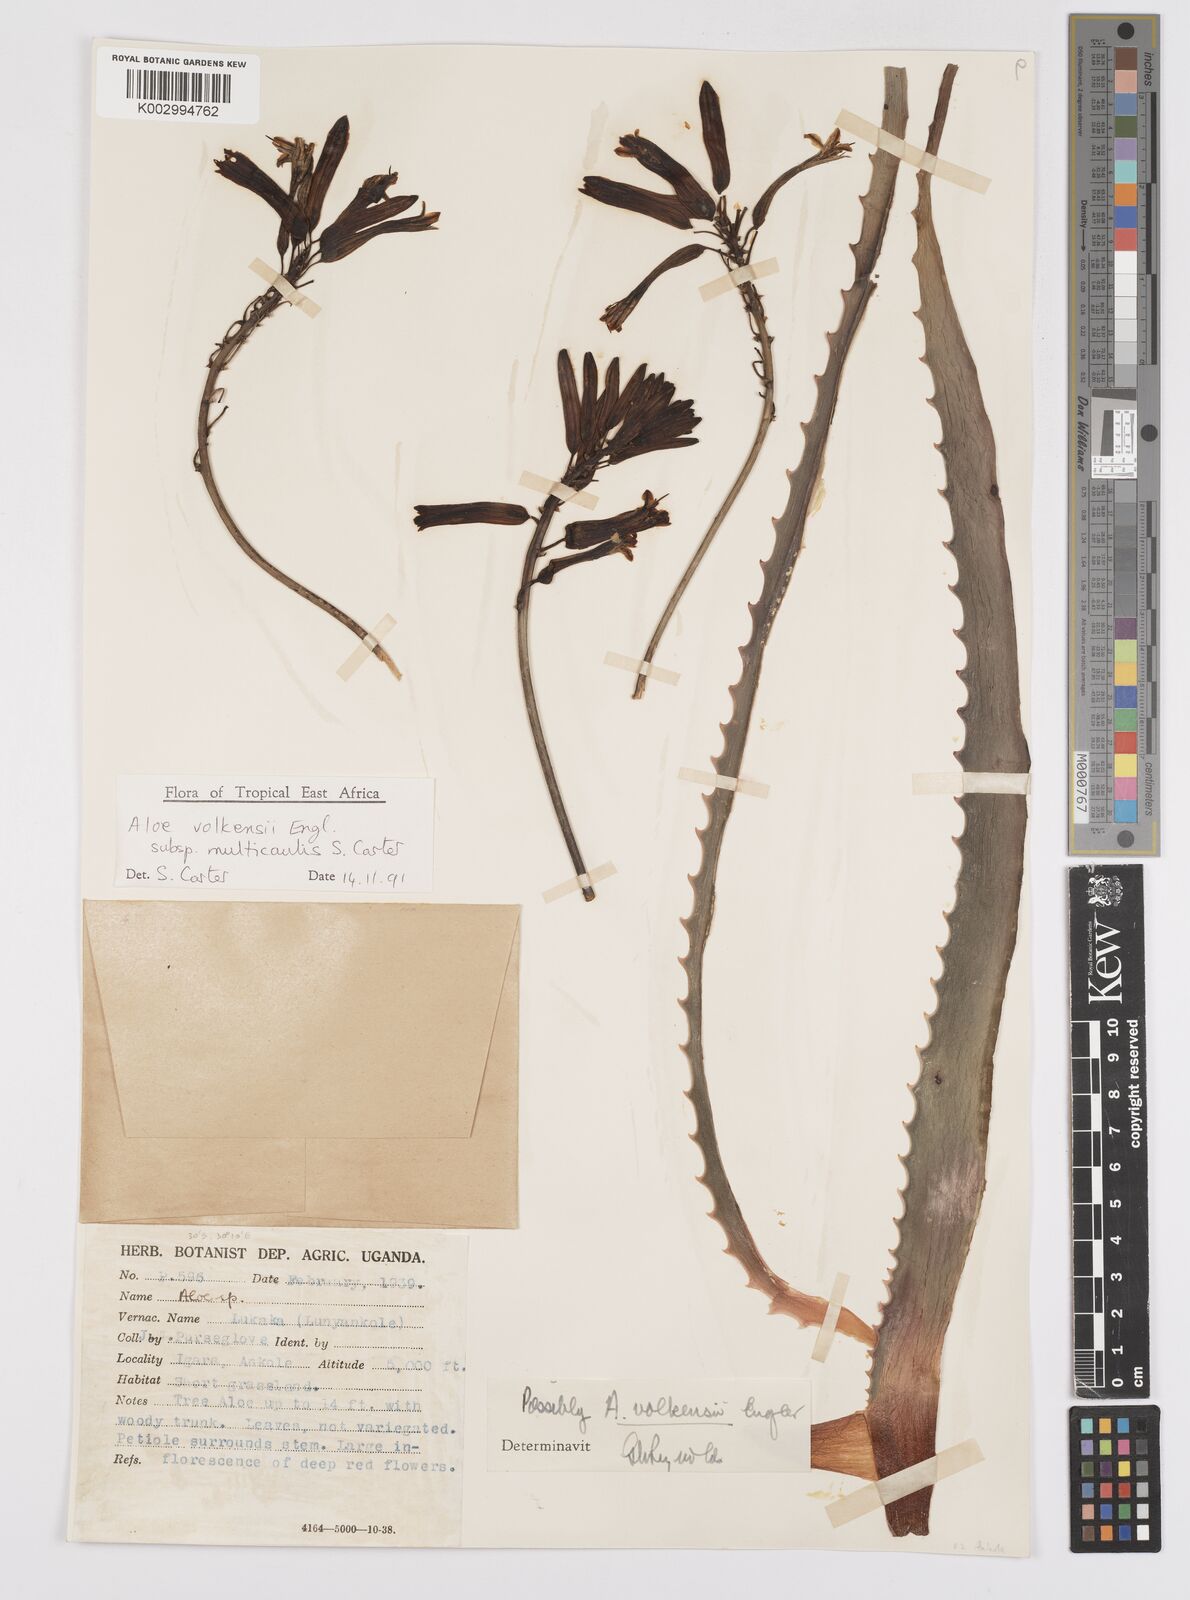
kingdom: Plantae
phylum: Tracheophyta
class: Liliopsida
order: Asparagales
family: Asphodelaceae
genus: Aloe
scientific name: Aloe volkensii
